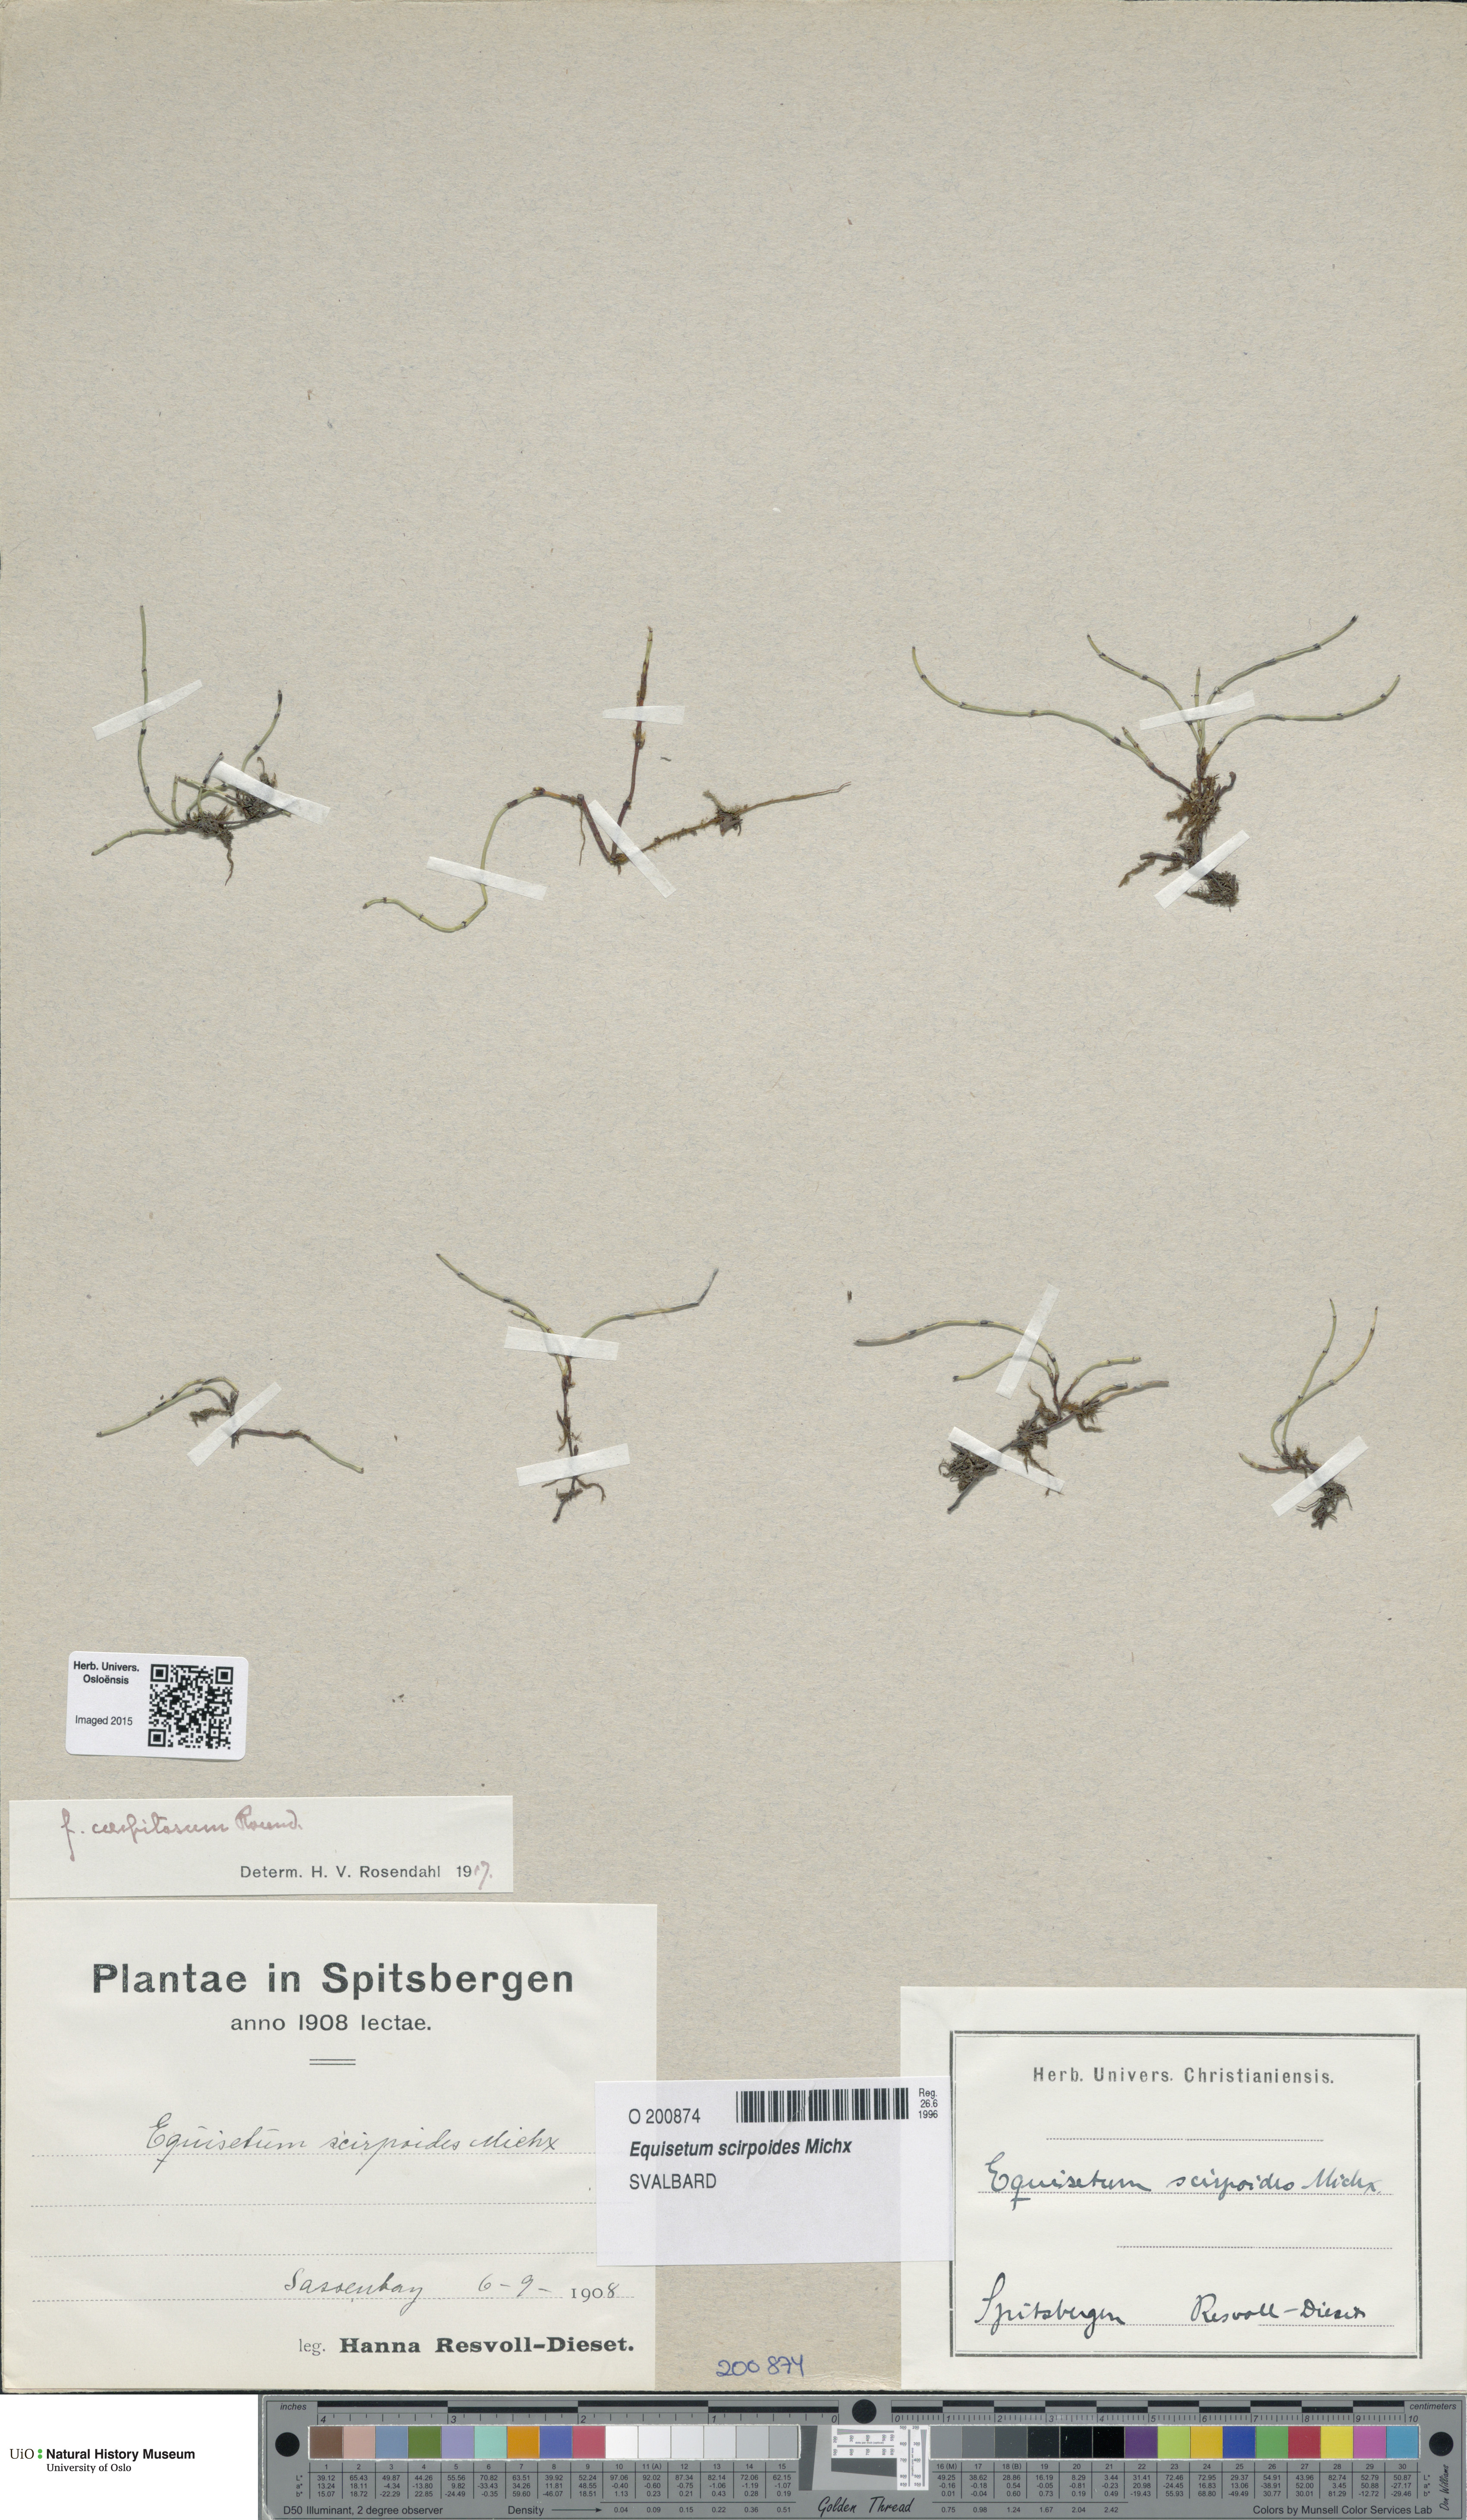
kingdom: Plantae
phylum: Tracheophyta
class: Polypodiopsida
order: Equisetales
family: Equisetaceae
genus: Equisetum
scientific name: Equisetum scirpoides
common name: Delicate horsetail
